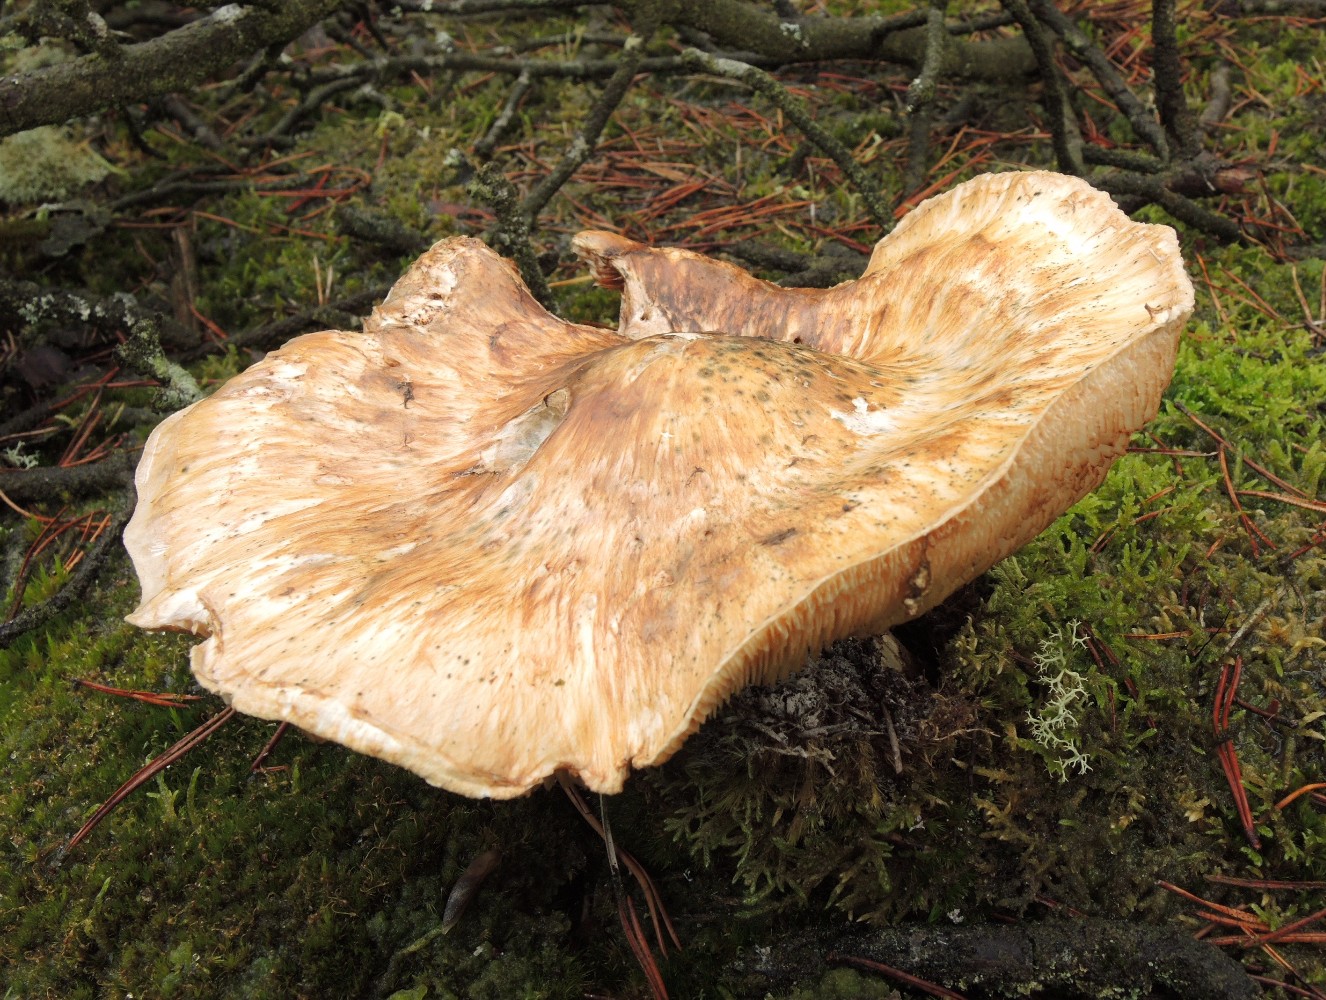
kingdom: Fungi
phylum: Basidiomycota
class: Agaricomycetes
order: Agaricales
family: Tricholomataceae
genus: Tricholoma
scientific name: Tricholoma matsutake
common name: duft-ridderhat
